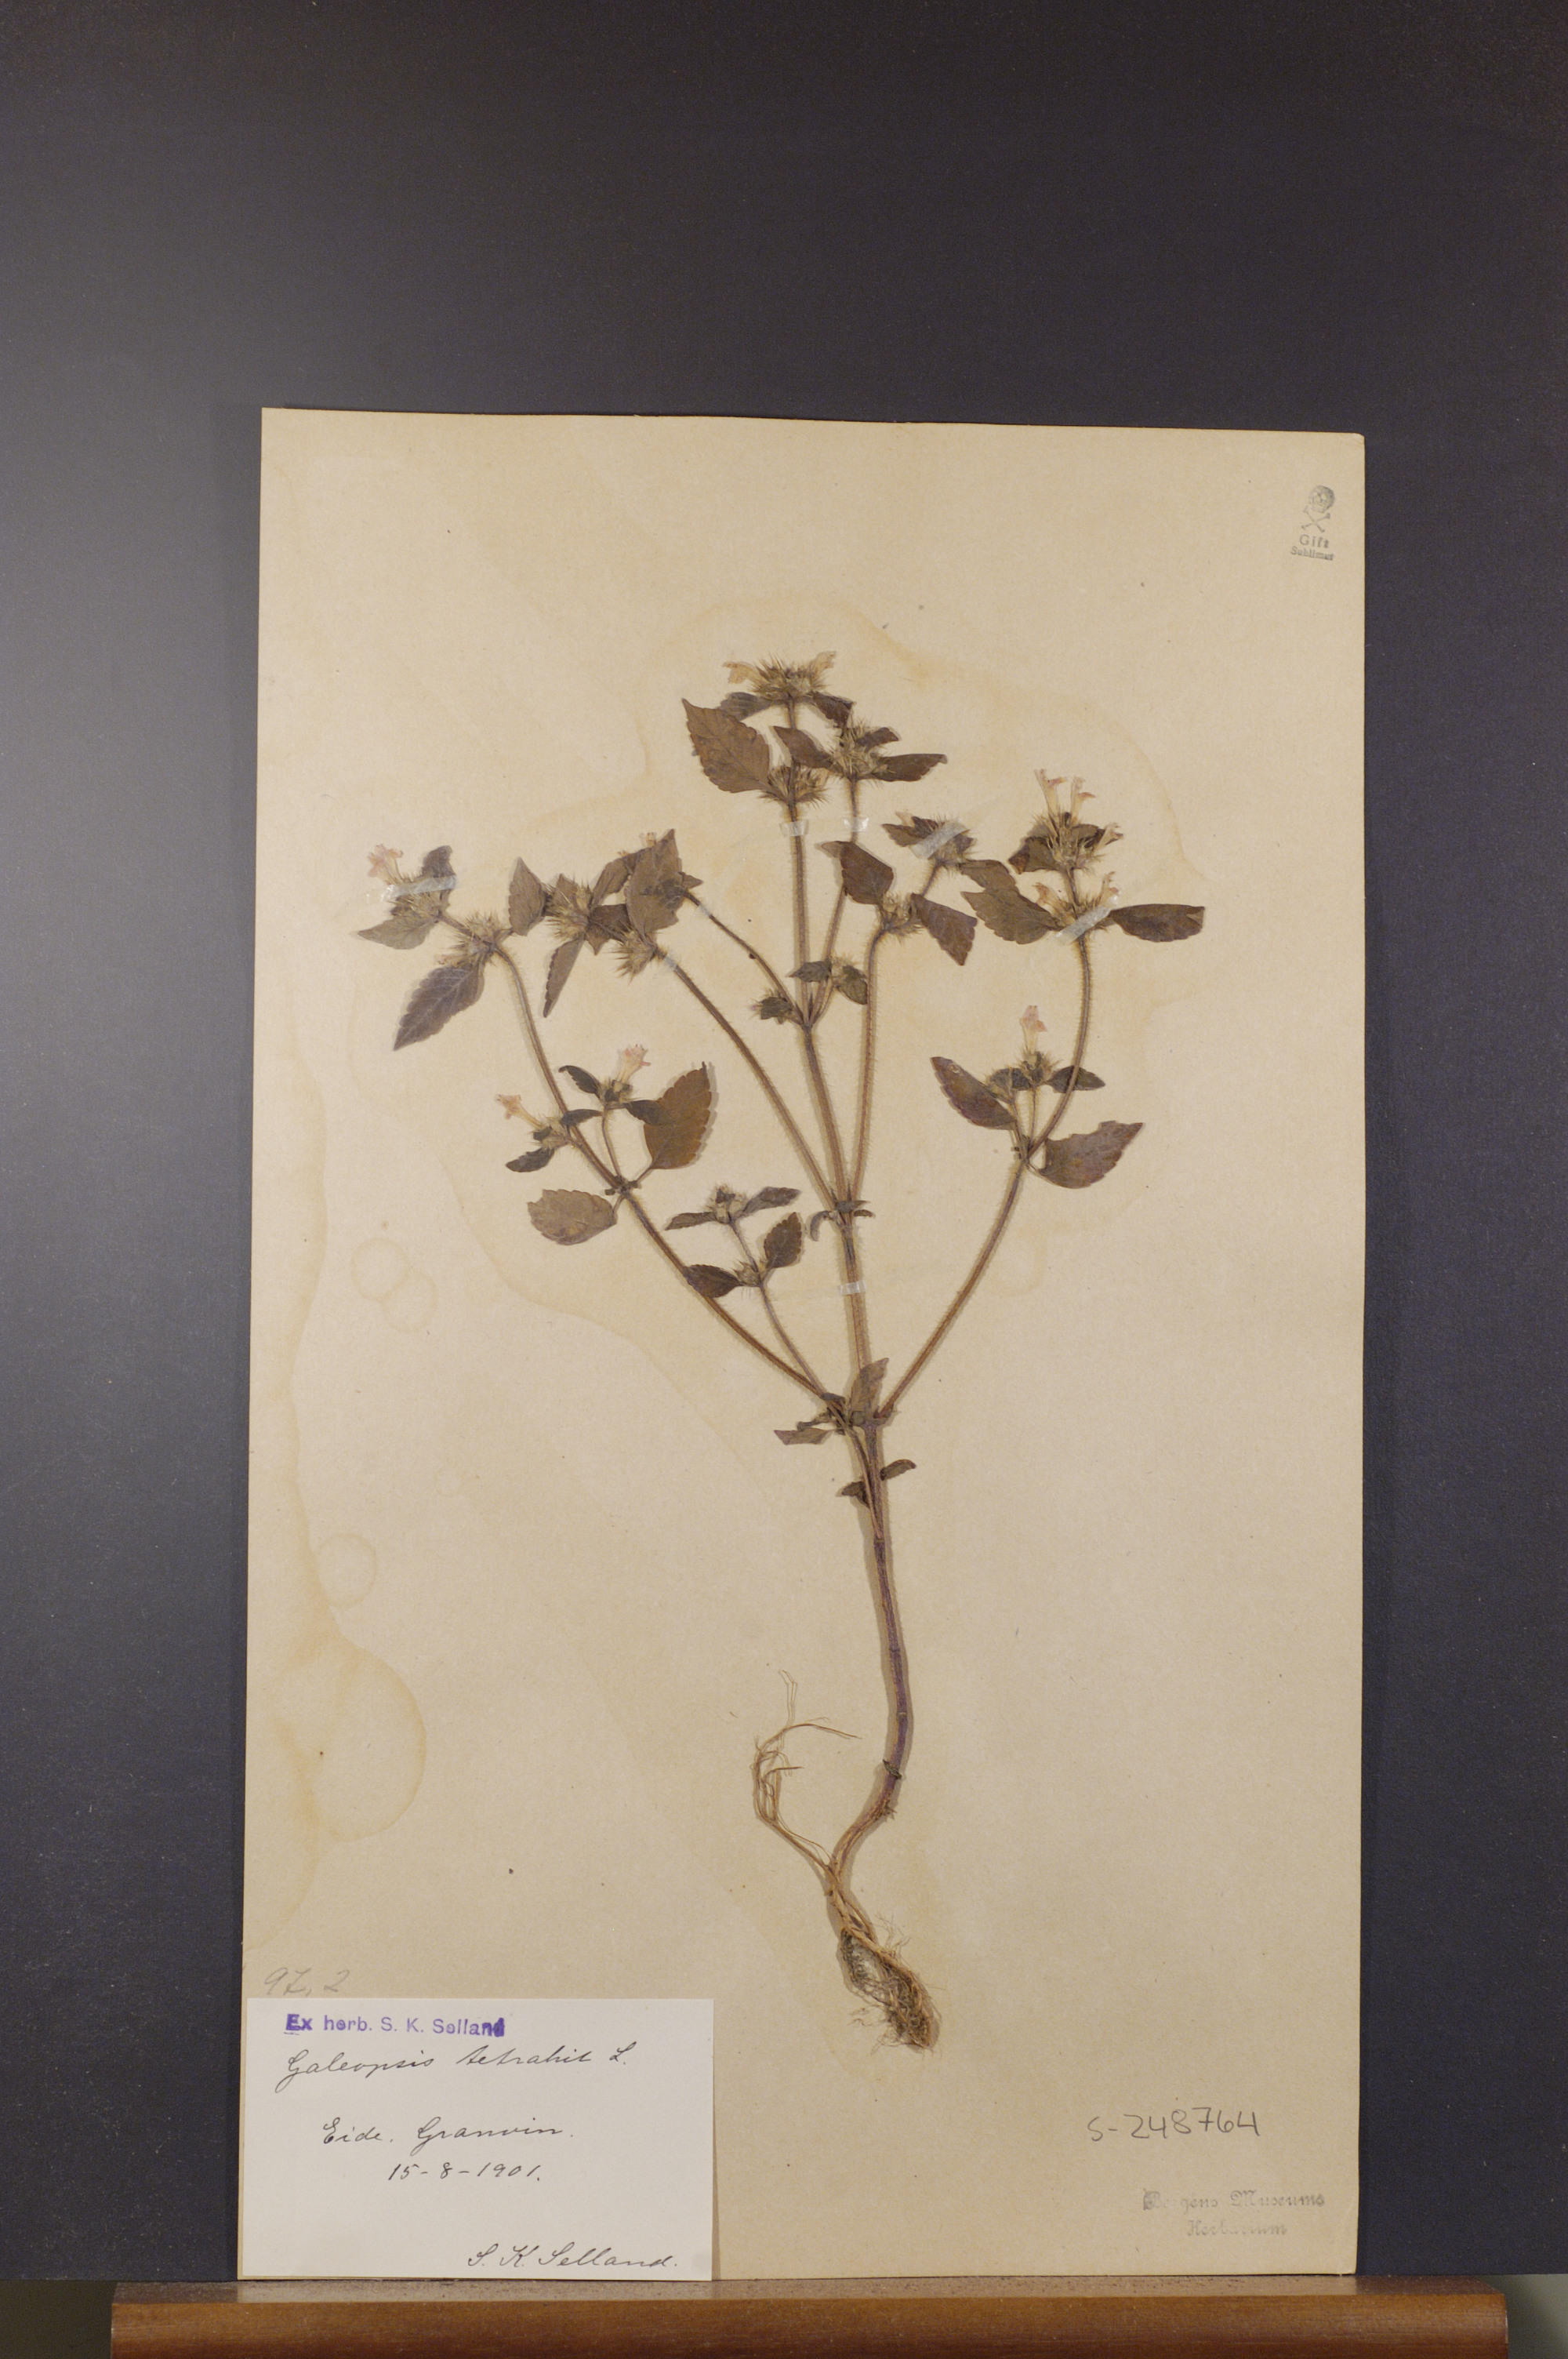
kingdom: Plantae
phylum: Tracheophyta
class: Magnoliopsida
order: Lamiales
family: Lamiaceae
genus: Galeopsis
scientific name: Galeopsis tetrahit
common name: Common hemp-nettle
